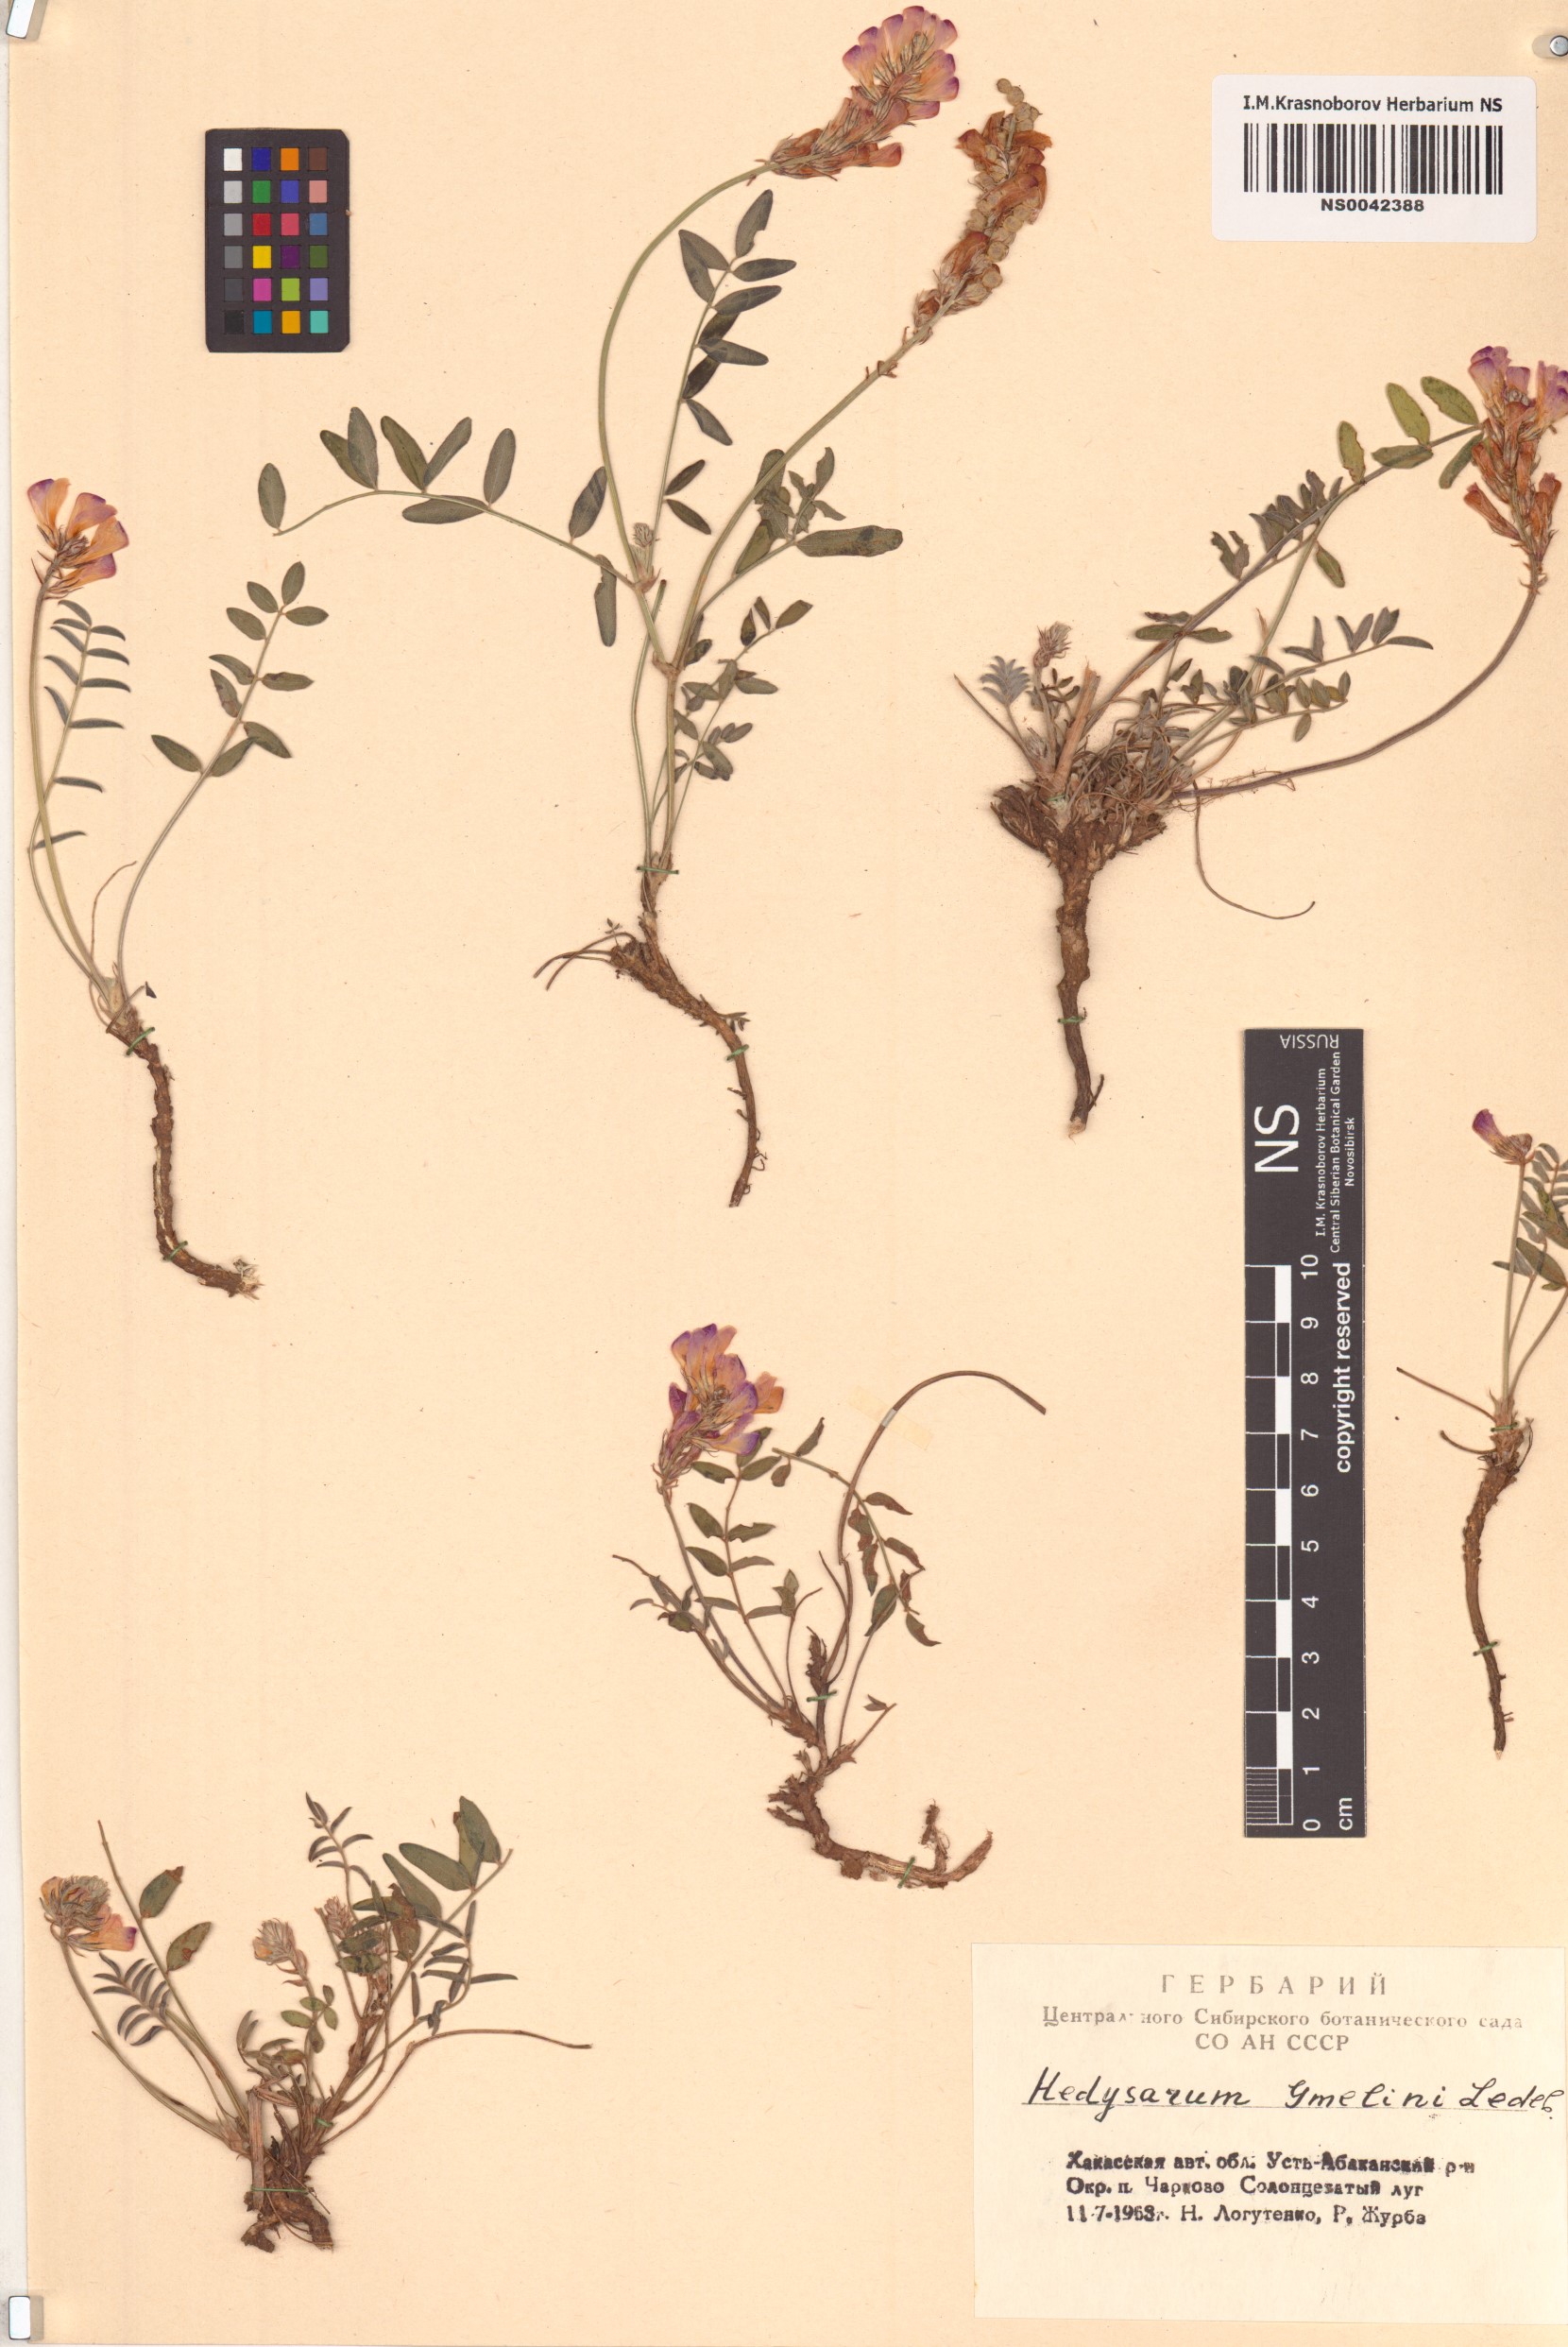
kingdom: Plantae
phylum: Tracheophyta
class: Magnoliopsida
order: Fabales
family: Fabaceae
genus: Hedysarum
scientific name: Hedysarum gmelinii
